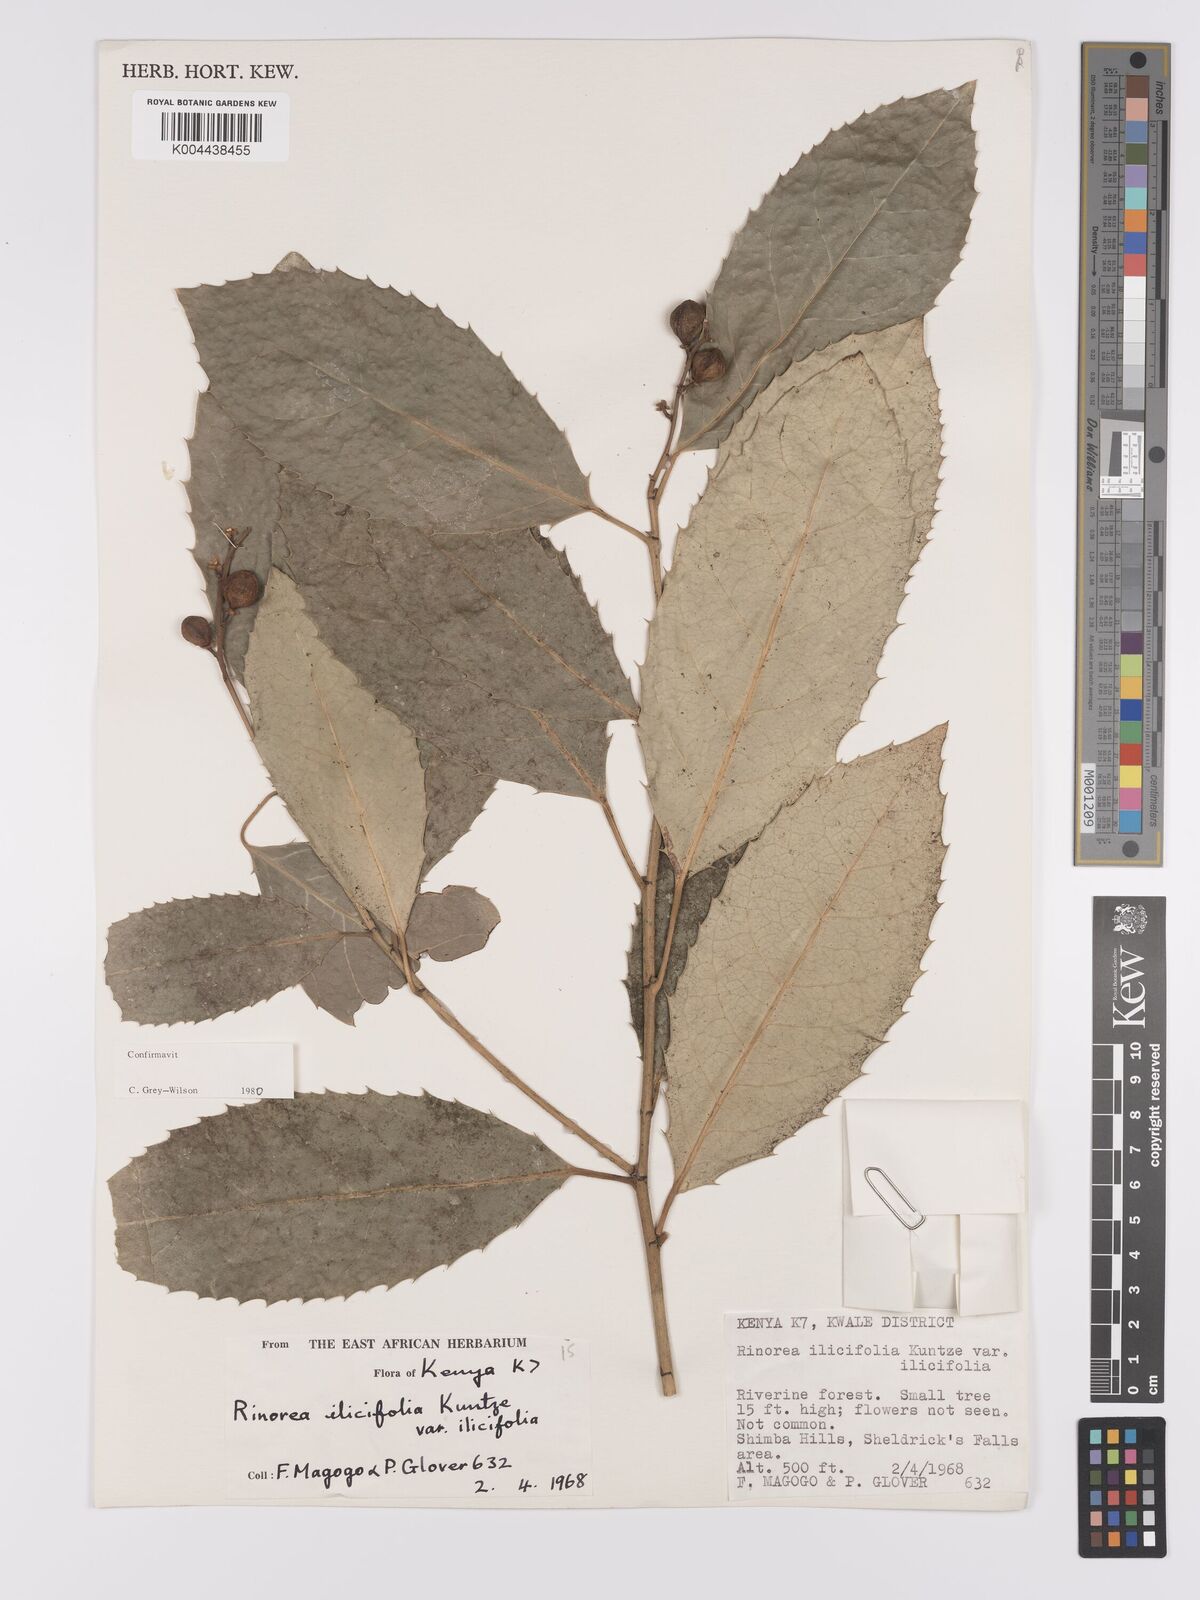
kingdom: Plantae
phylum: Tracheophyta
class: Magnoliopsida
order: Malpighiales
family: Violaceae
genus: Rinorea
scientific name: Rinorea ilicifolia
